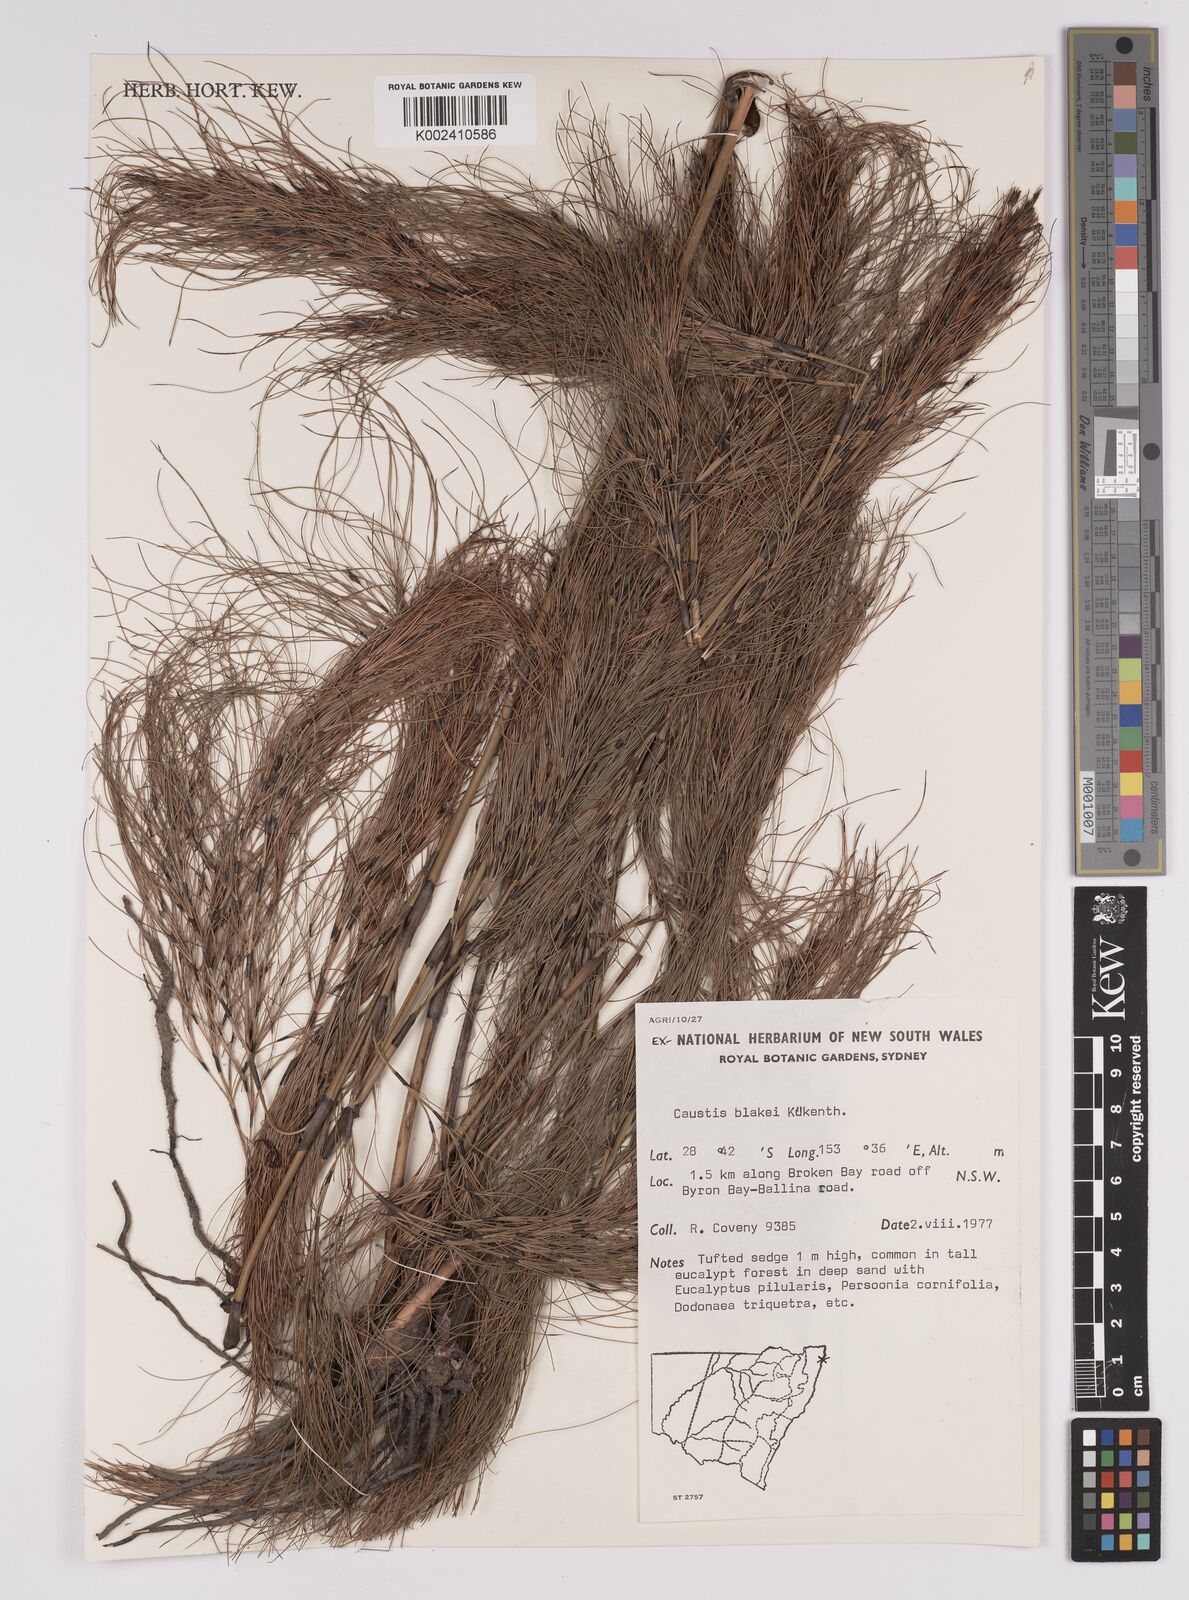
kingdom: Plantae
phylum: Tracheophyta
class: Liliopsida
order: Poales
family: Cyperaceae
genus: Caustis
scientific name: Caustis blakei
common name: Foxtail-fern
